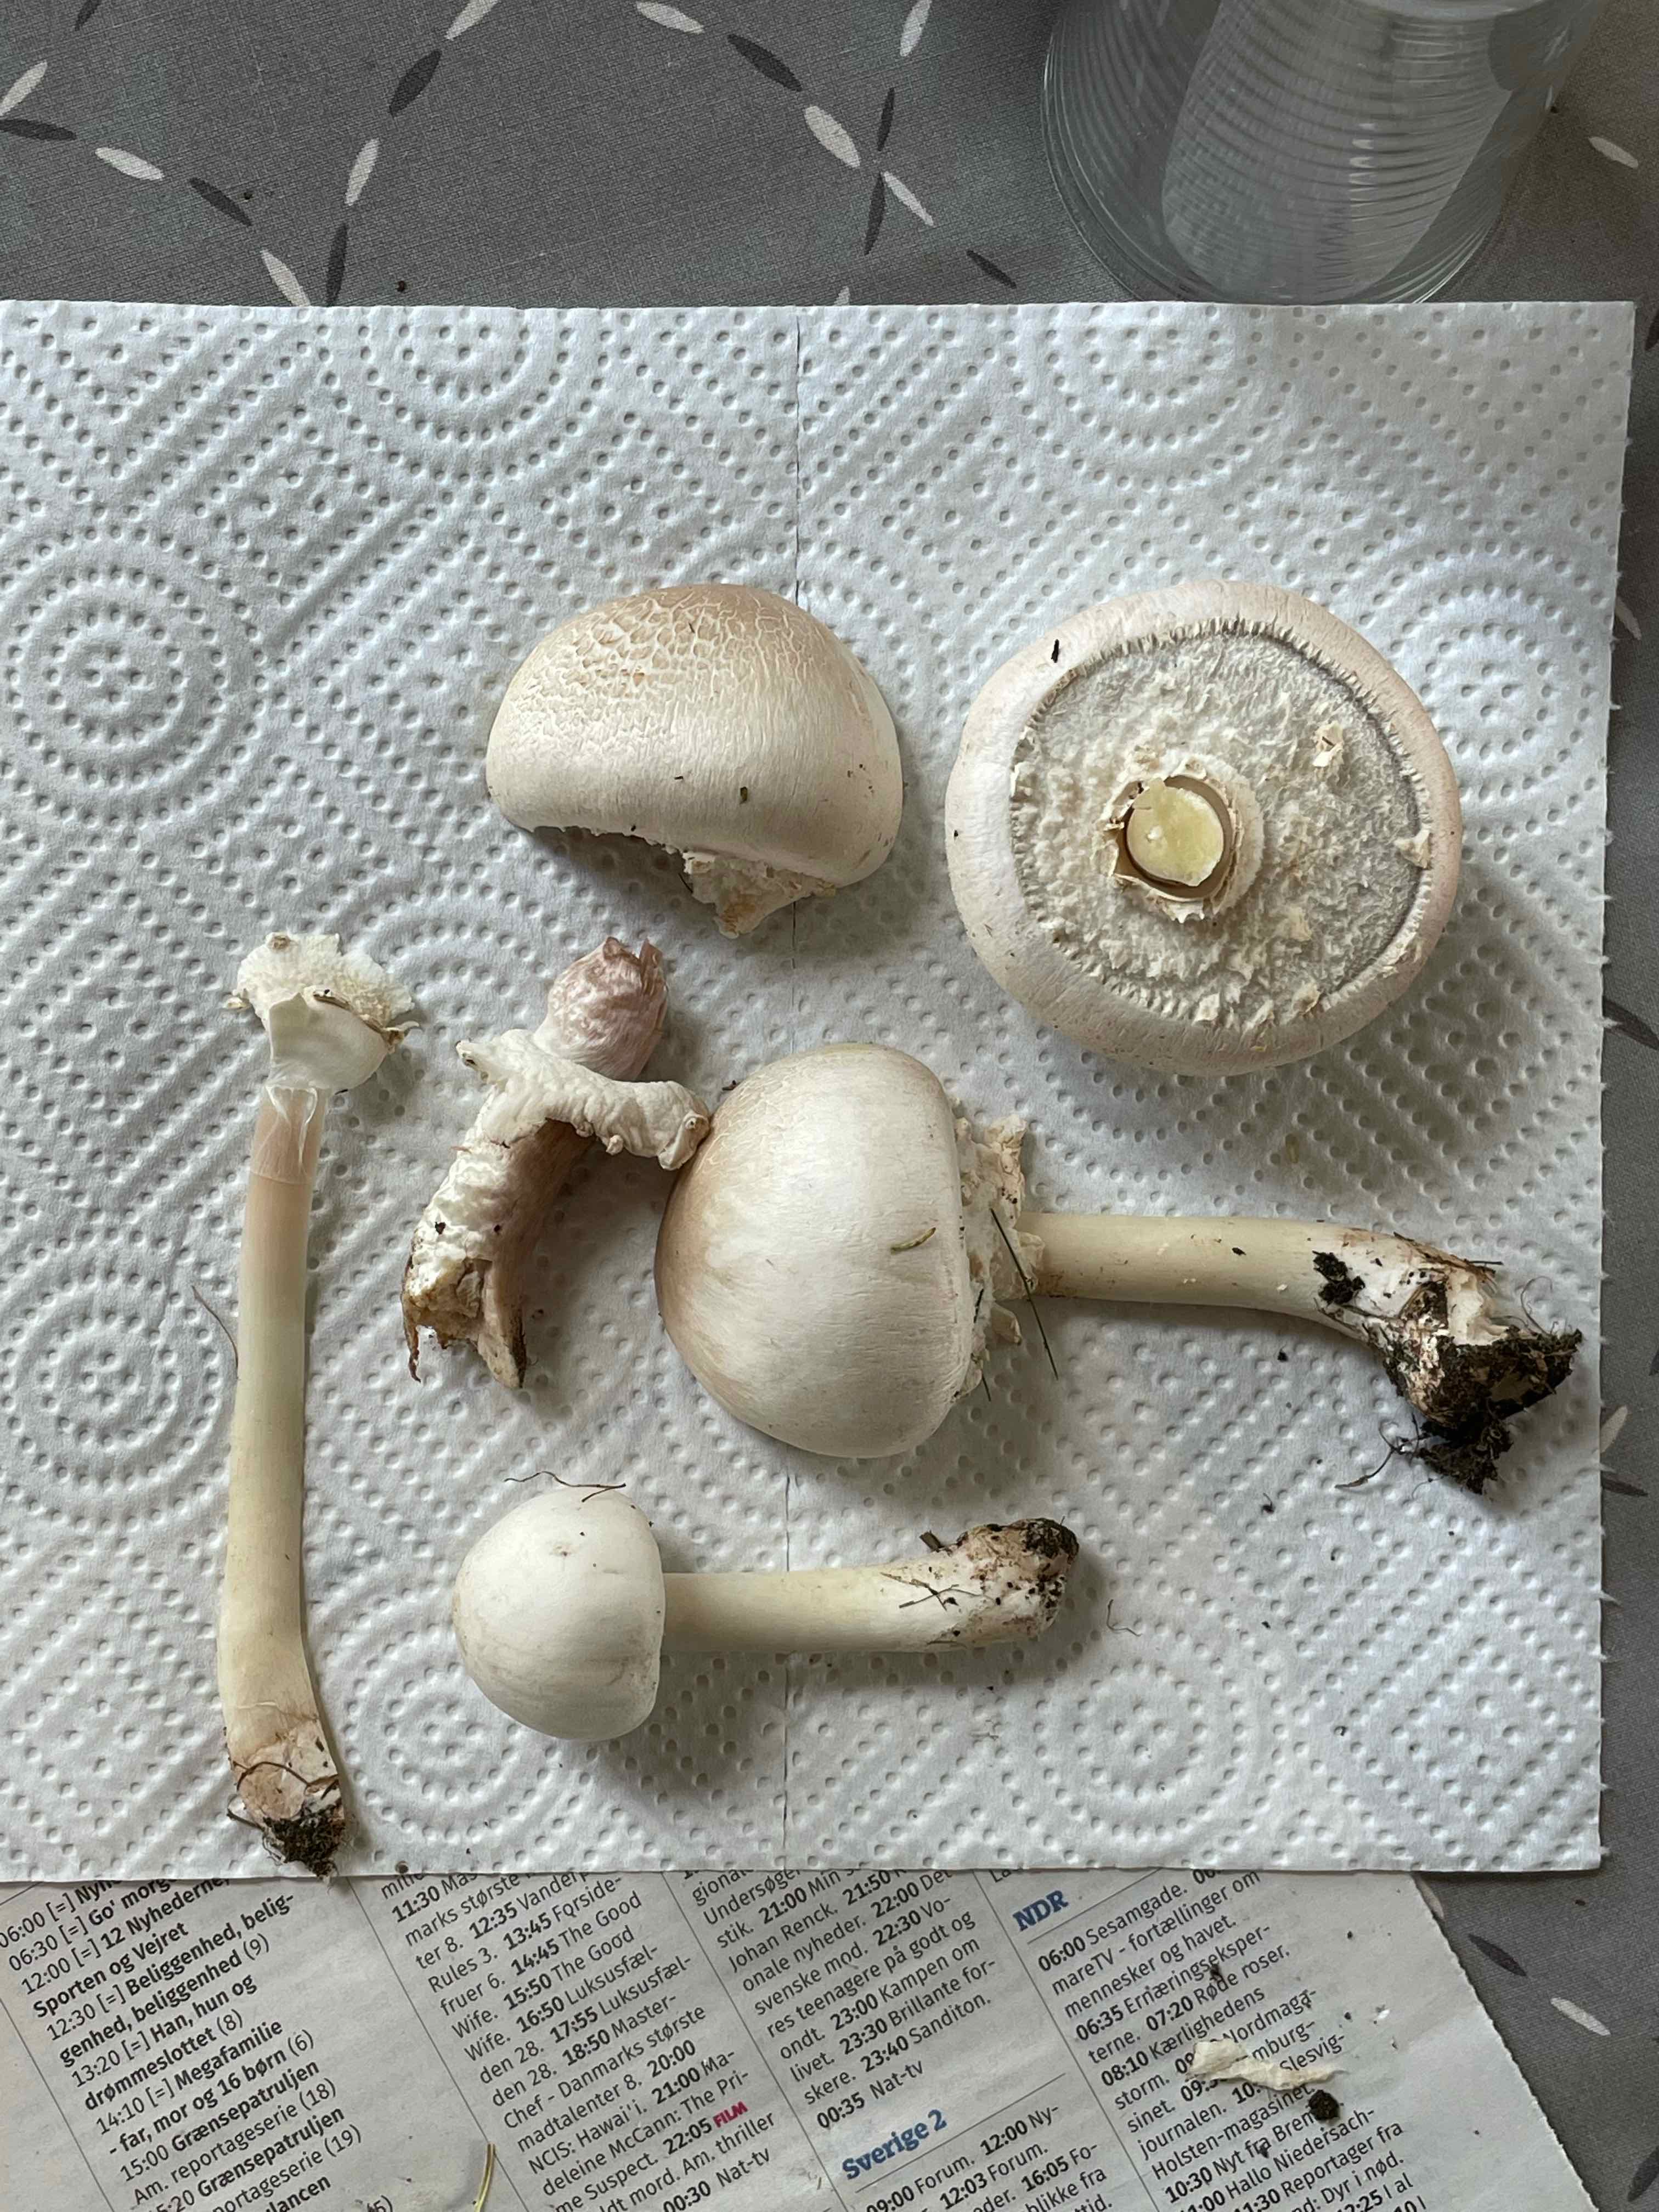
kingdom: Fungi
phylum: Basidiomycota
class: Agaricomycetes
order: Agaricales
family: Agaricaceae
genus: Agaricus
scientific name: Agaricus xanthodermus
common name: karbol-champignon
